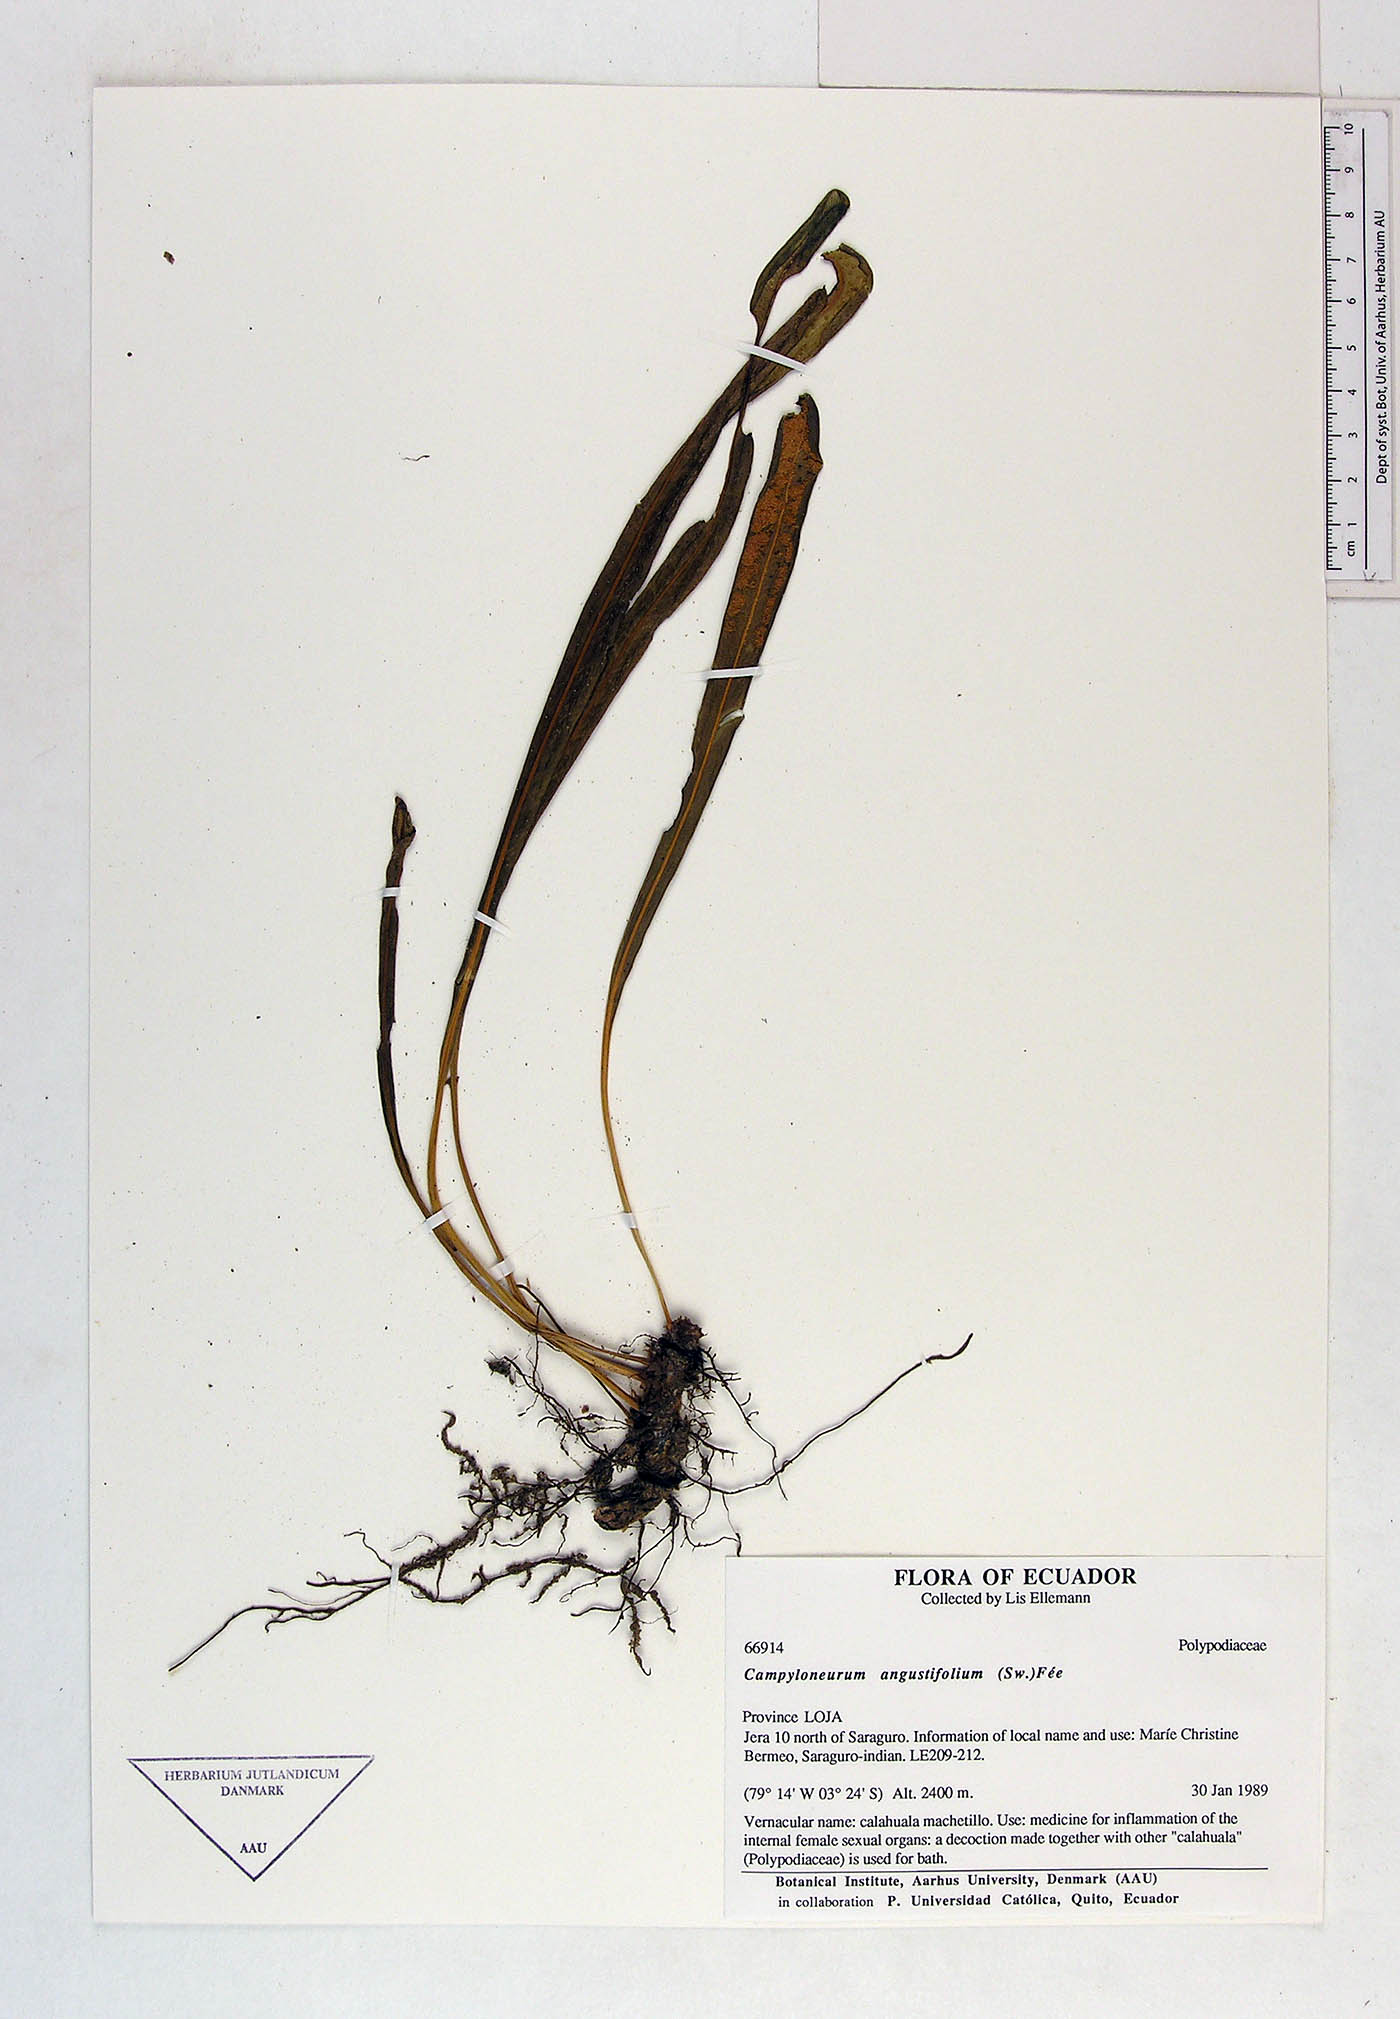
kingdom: Plantae
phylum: Tracheophyta
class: Polypodiopsida
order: Polypodiales
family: Polypodiaceae
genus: Campyloneurum
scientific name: Campyloneurum angustifolium
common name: Narrow-leaf strap fern
